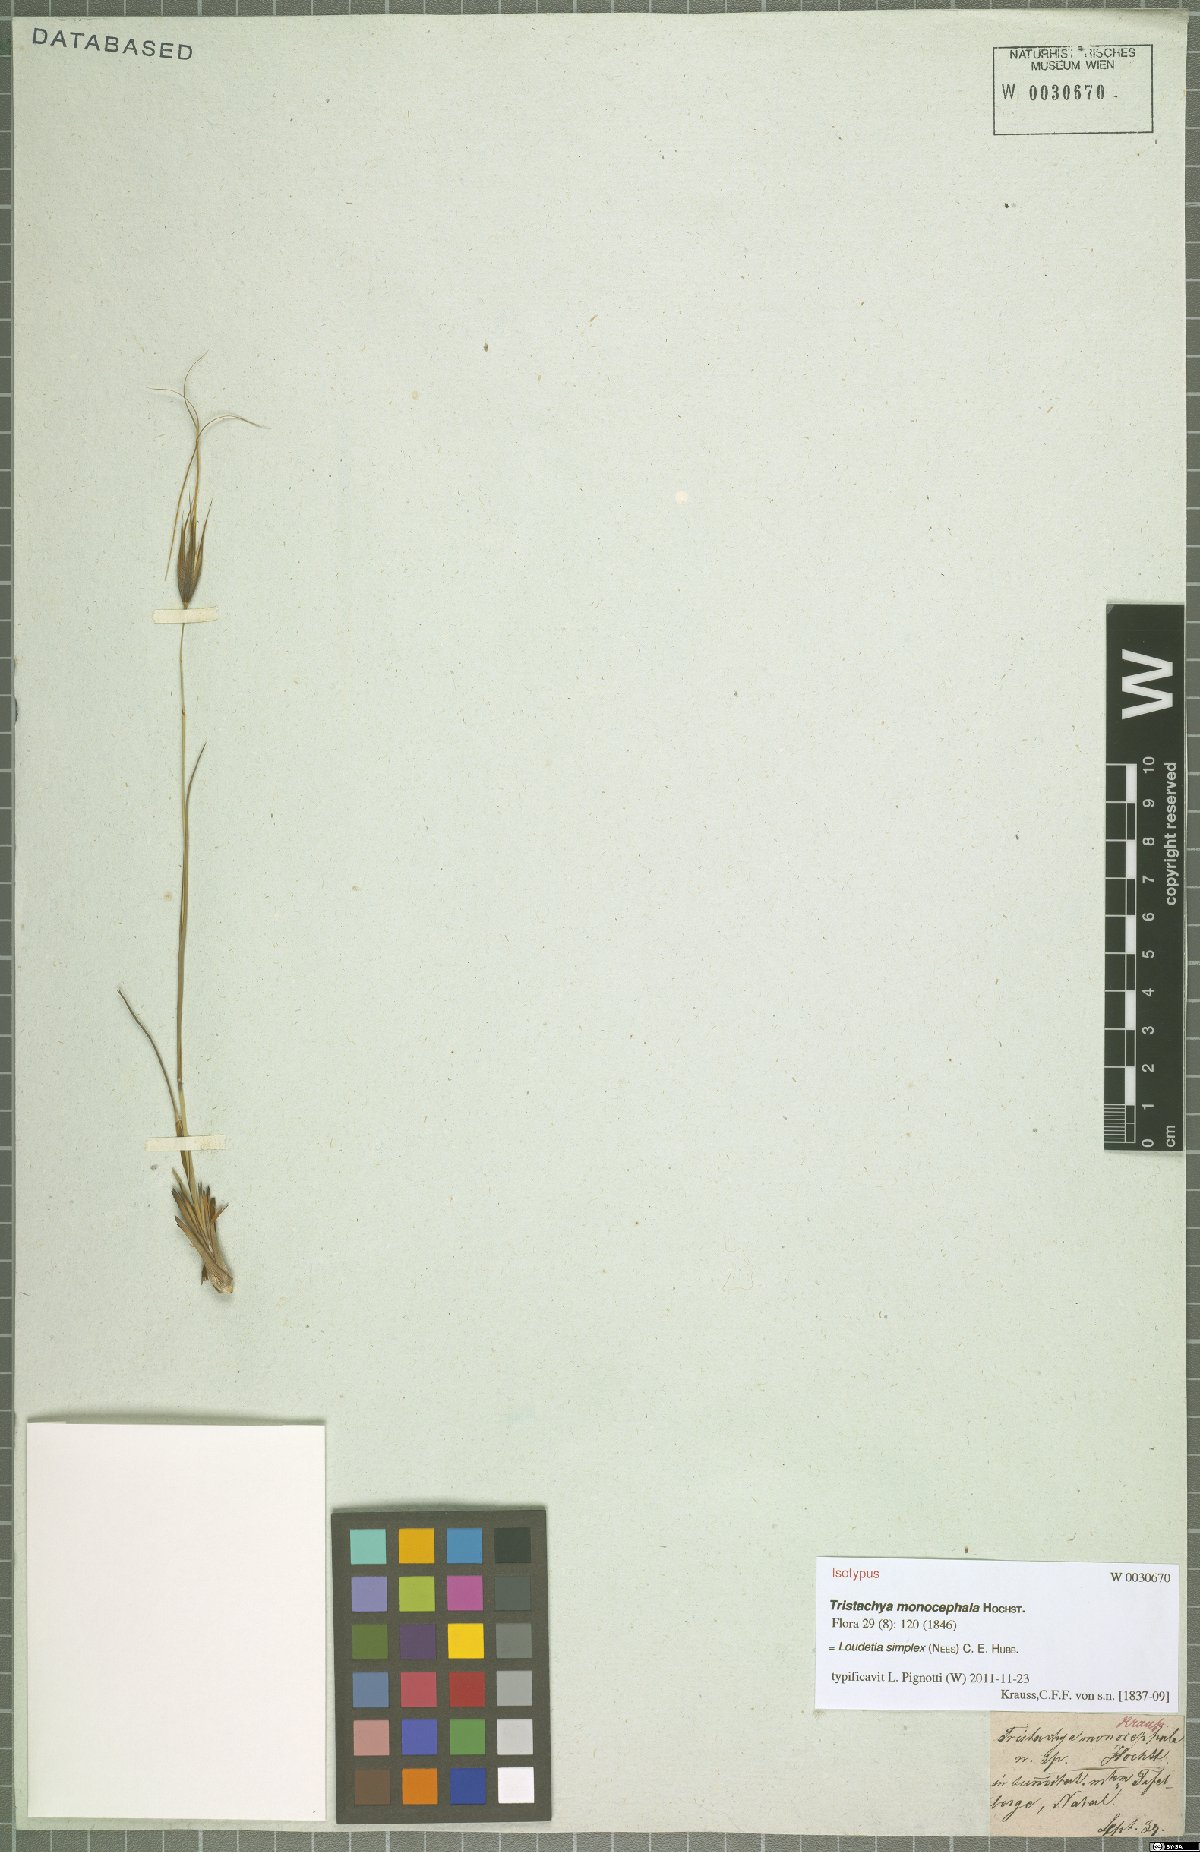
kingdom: Plantae
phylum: Tracheophyta
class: Liliopsida
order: Poales
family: Poaceae
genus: Loudetia
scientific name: Loudetia simplex
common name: Common russet grass
